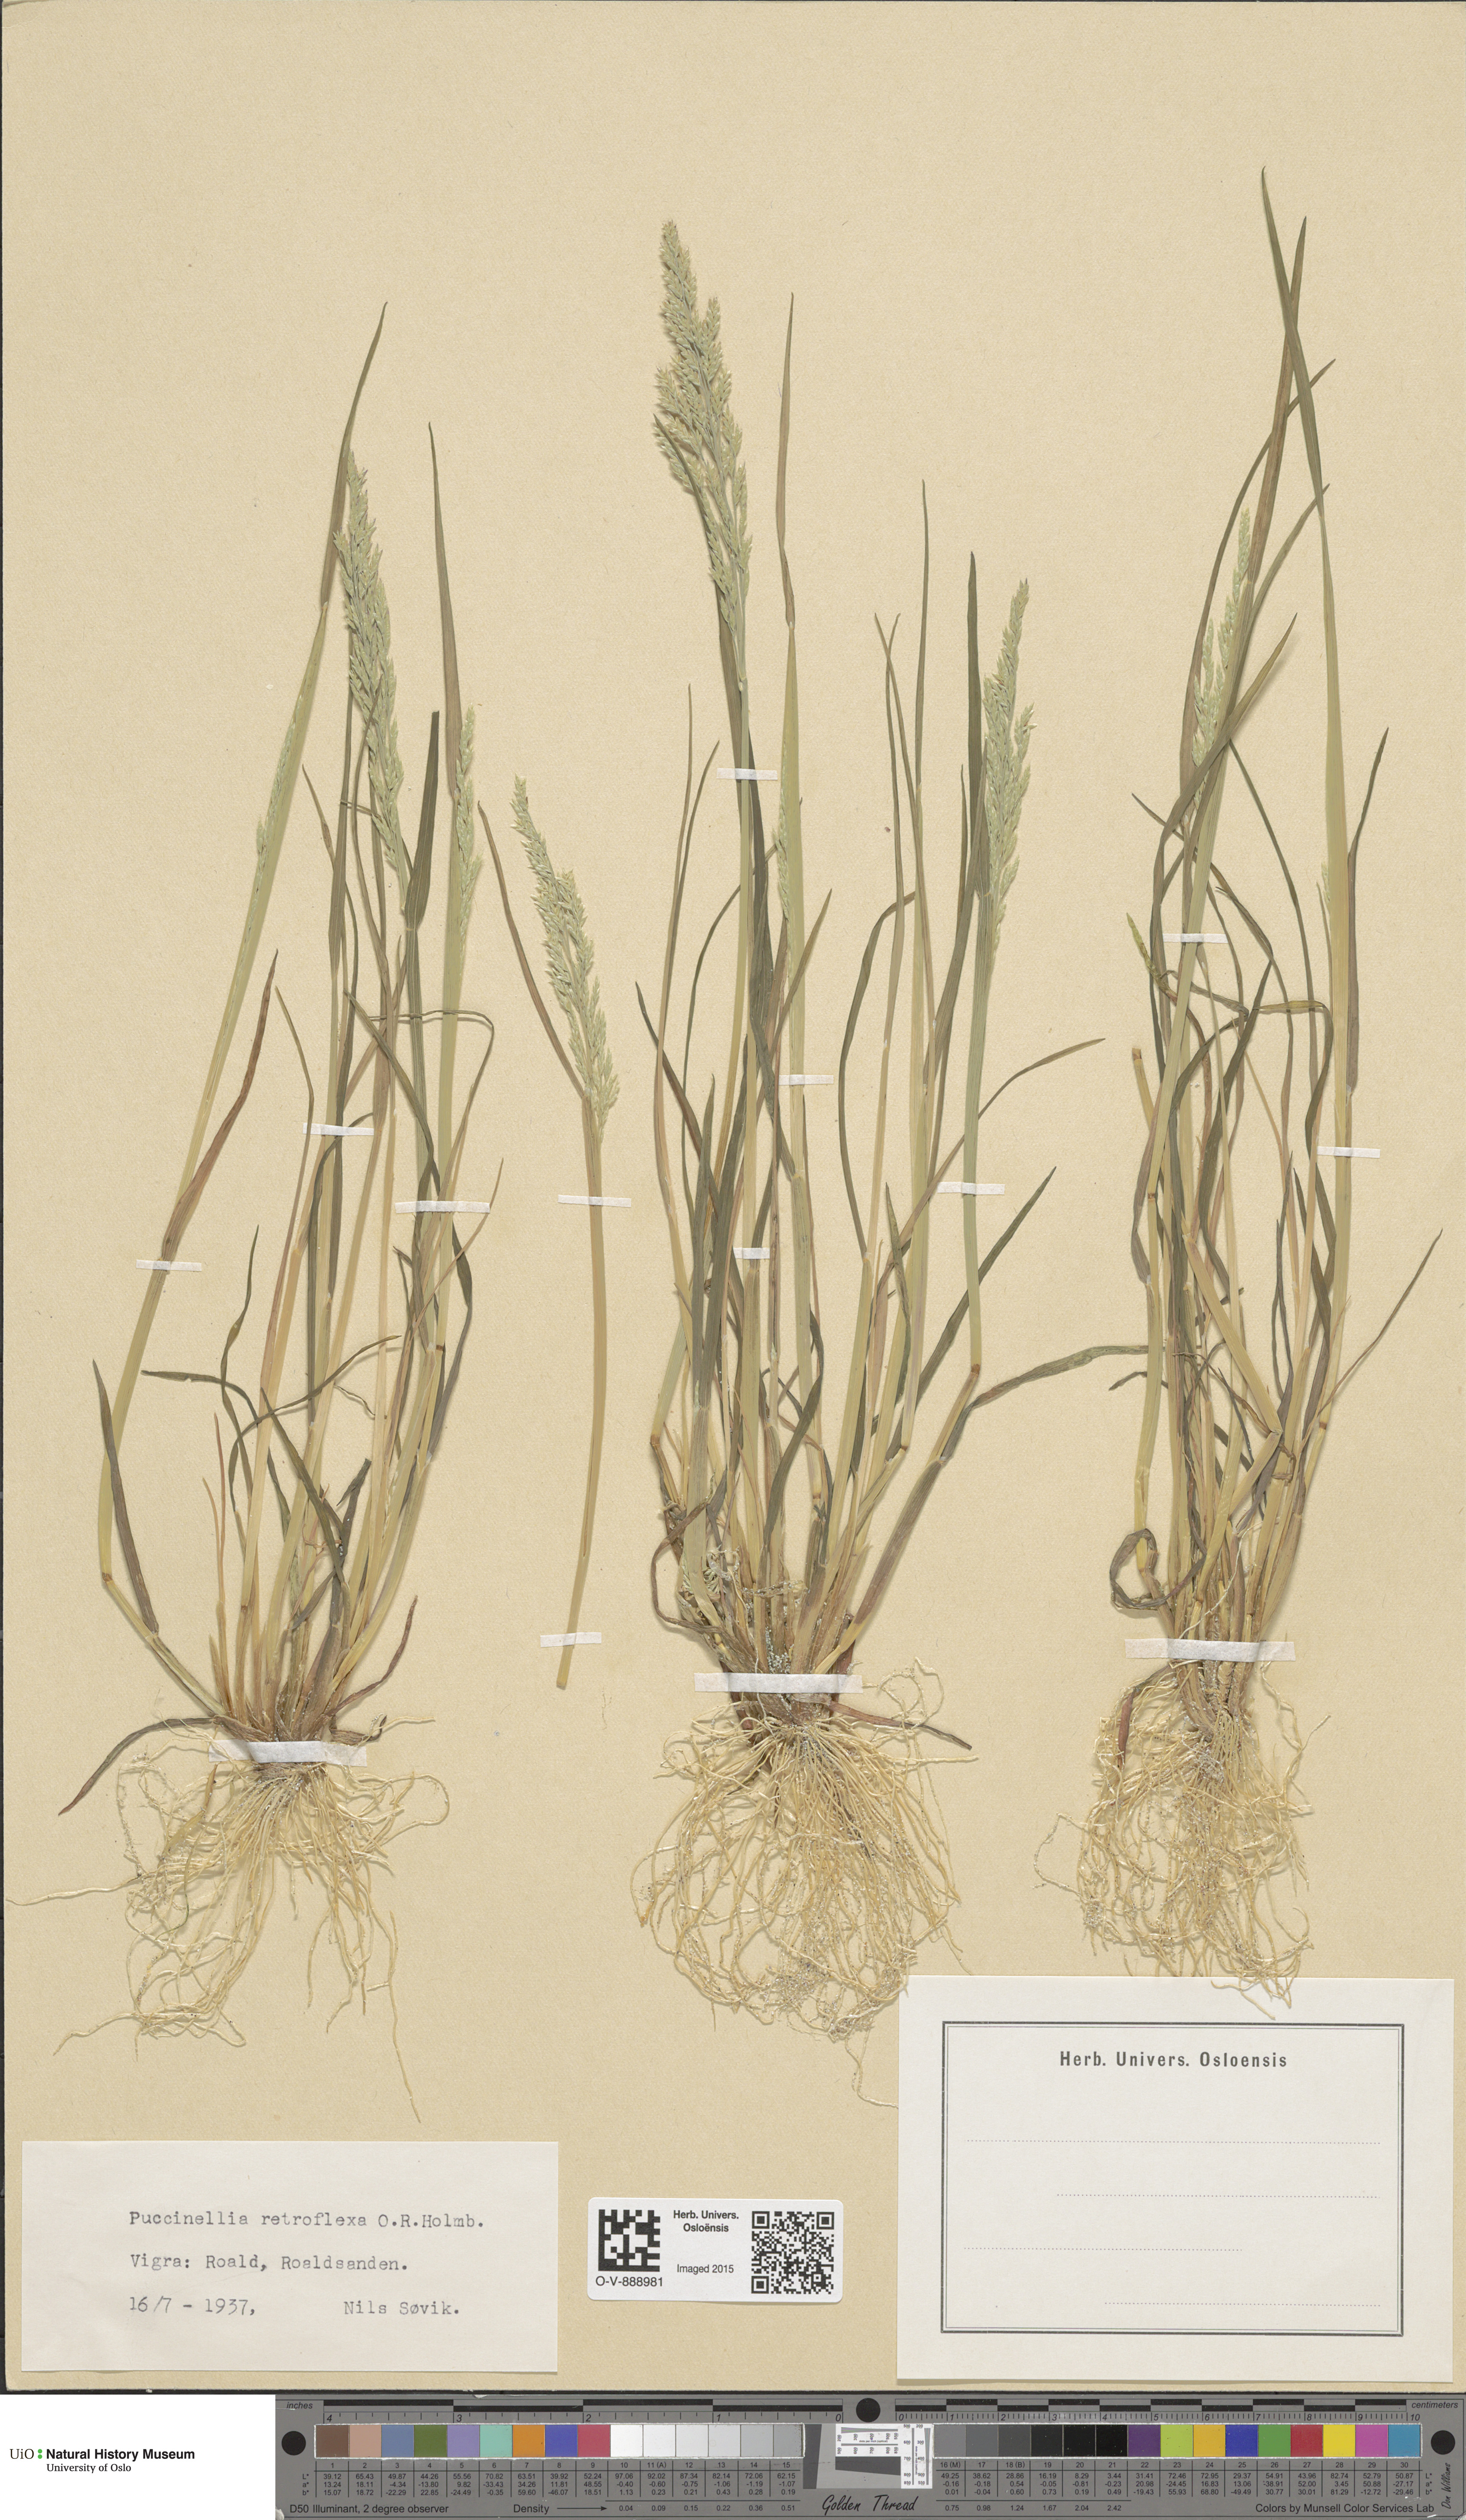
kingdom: Plantae
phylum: Tracheophyta
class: Liliopsida
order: Poales
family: Poaceae
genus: Puccinellia
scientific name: Puccinellia distans
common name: Weeping alkaligrass
